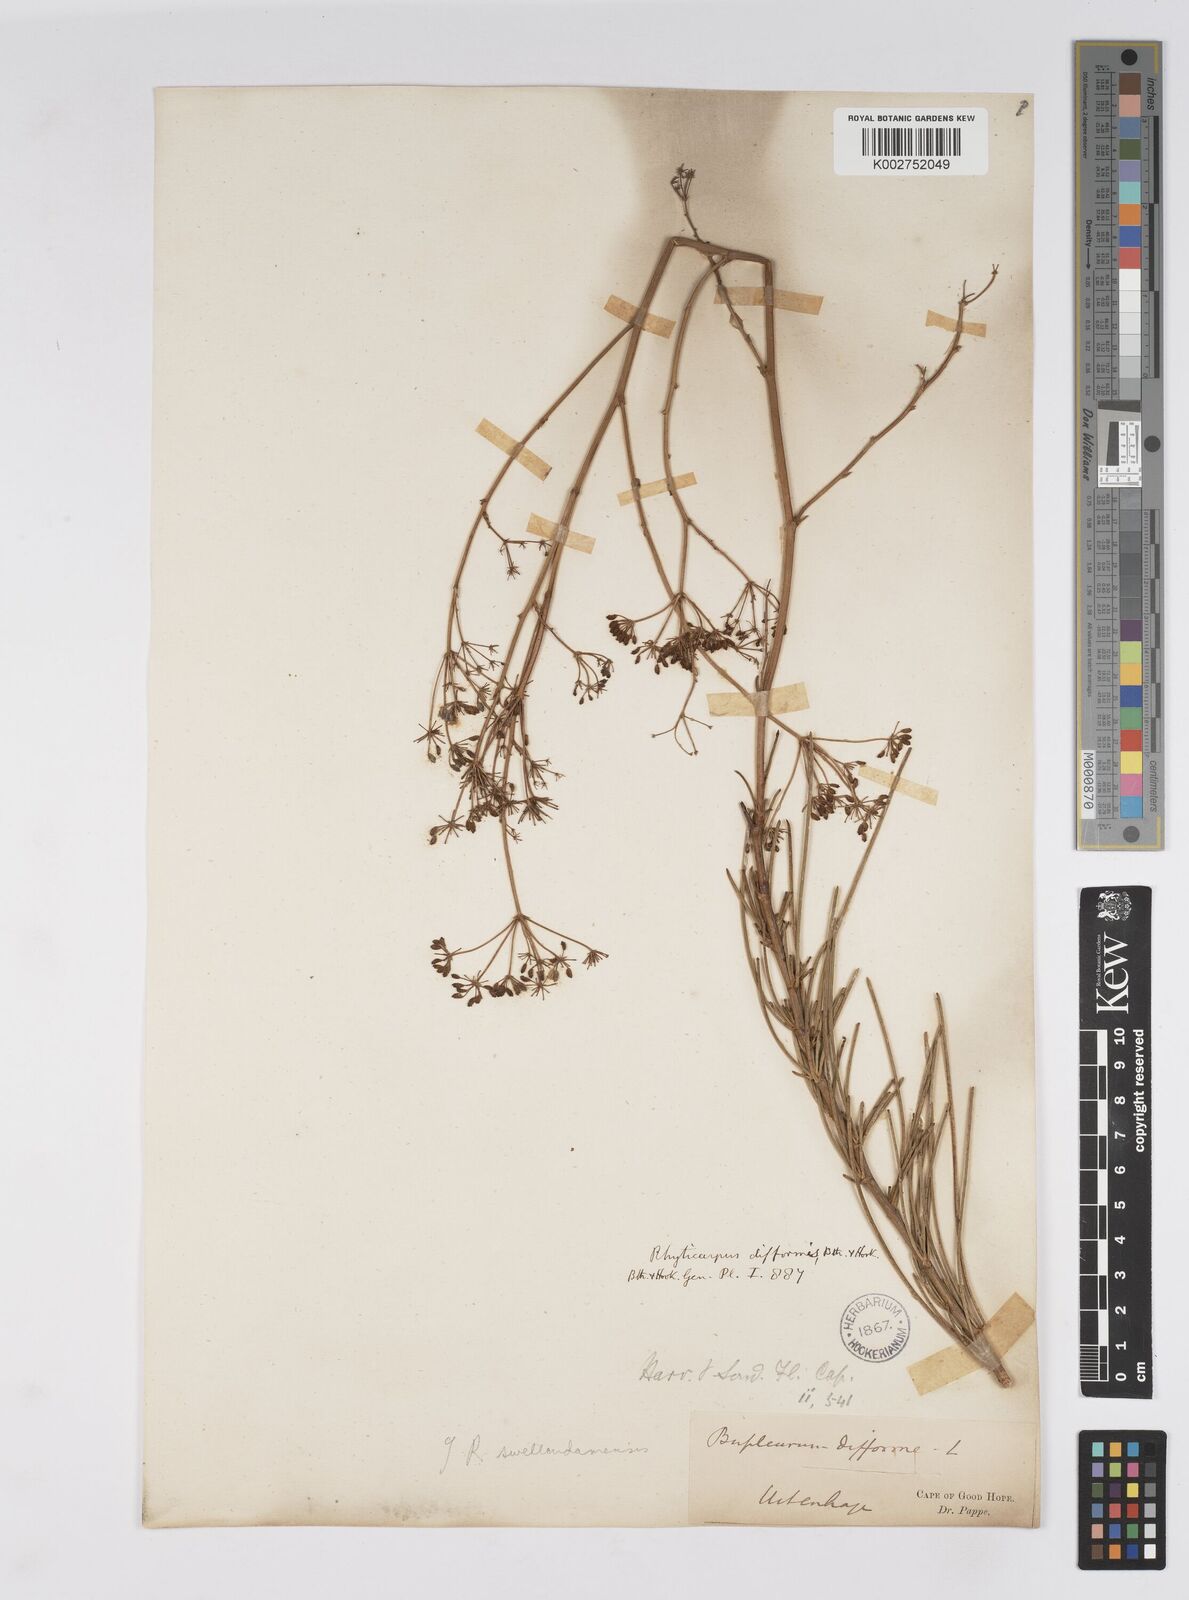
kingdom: Plantae
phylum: Tracheophyta
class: Magnoliopsida
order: Apiales
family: Apiaceae
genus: Anginon
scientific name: Anginon fruticosum
